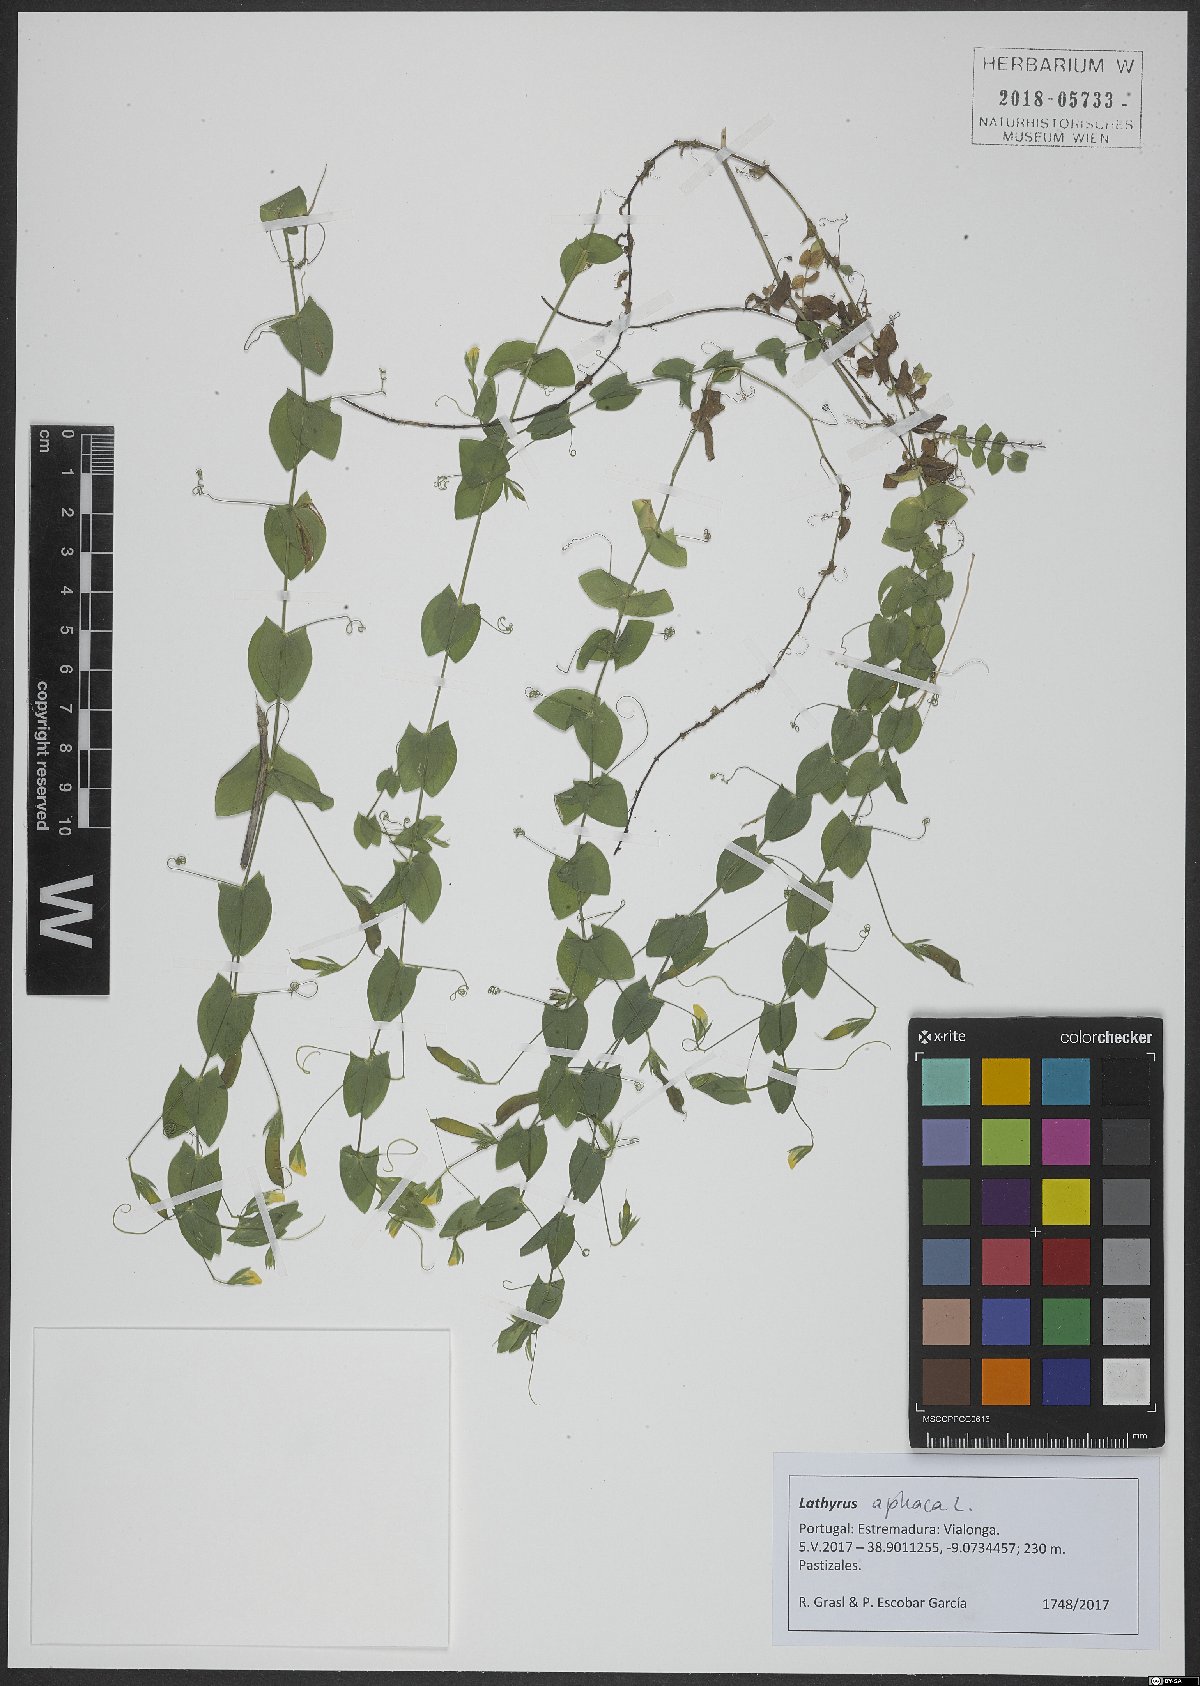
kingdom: Plantae
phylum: Tracheophyta
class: Magnoliopsida
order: Fabales
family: Fabaceae
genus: Lathyrus
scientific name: Lathyrus aphaca
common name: Yellow vetchling
